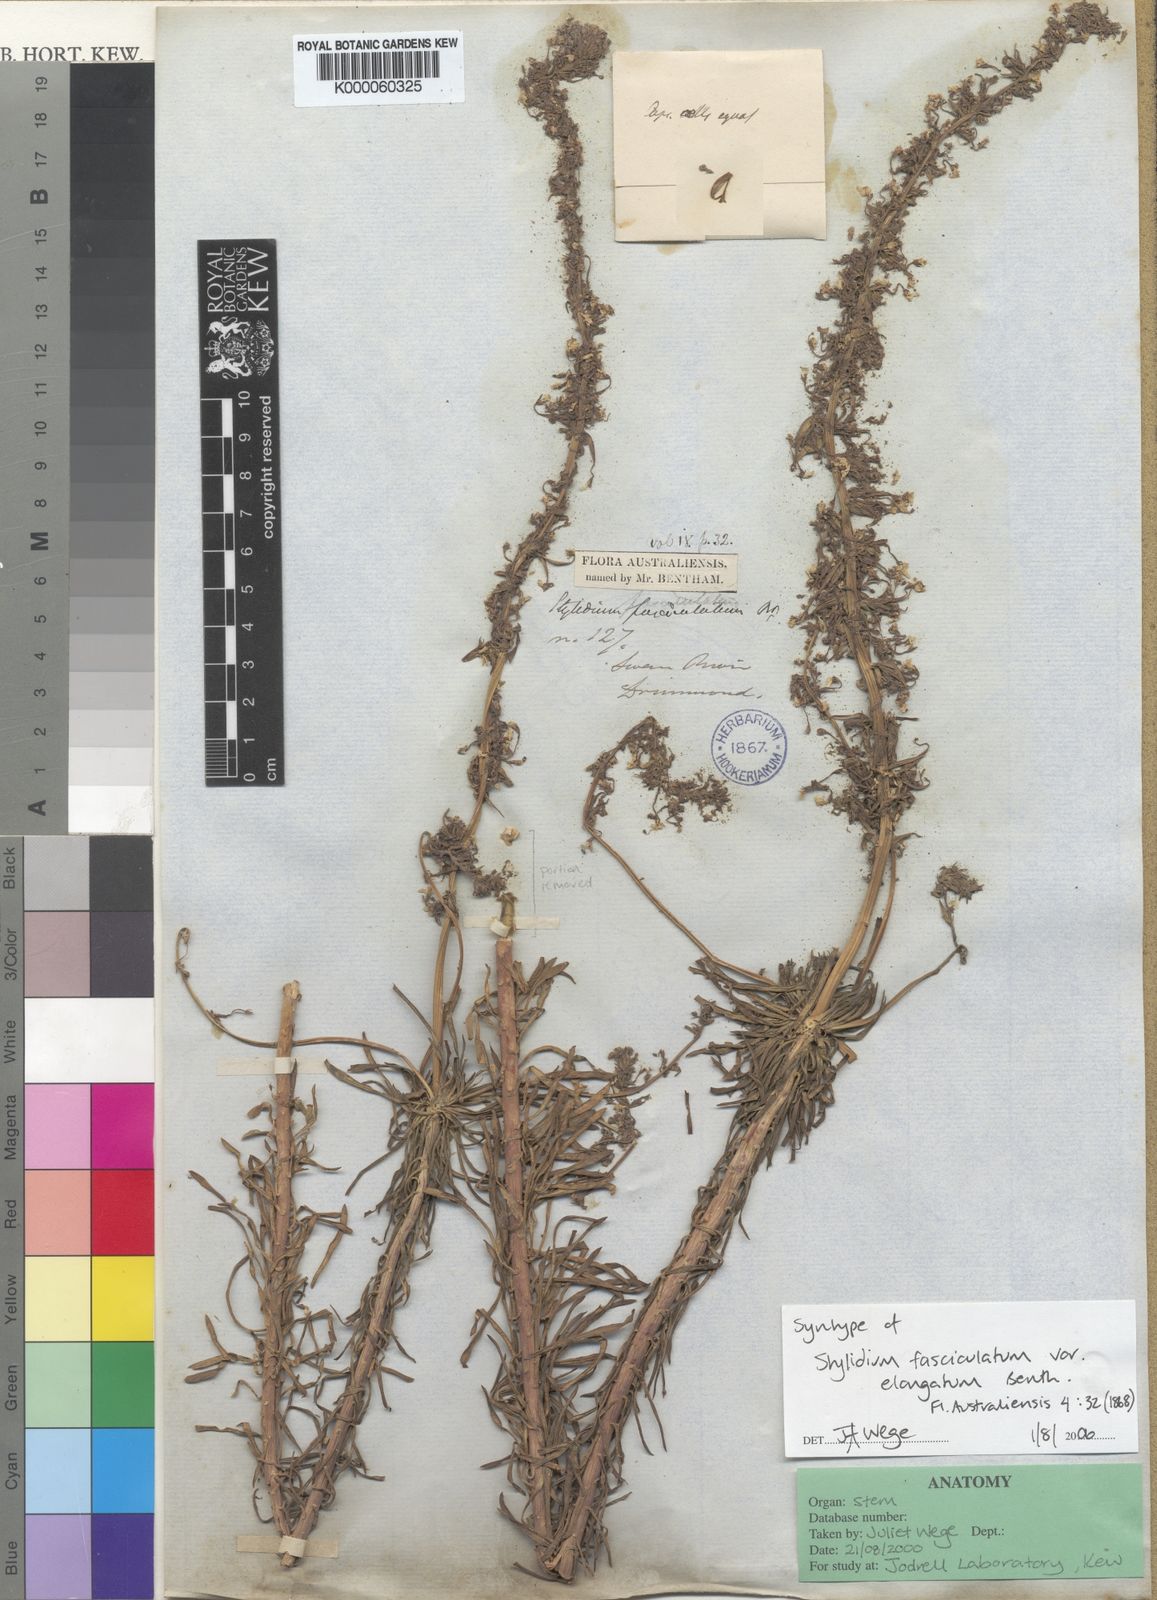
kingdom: Plantae
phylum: Tracheophyta
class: Magnoliopsida
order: Asterales
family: Stylidiaceae
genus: Stylidium
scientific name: Stylidium fasciculatum
